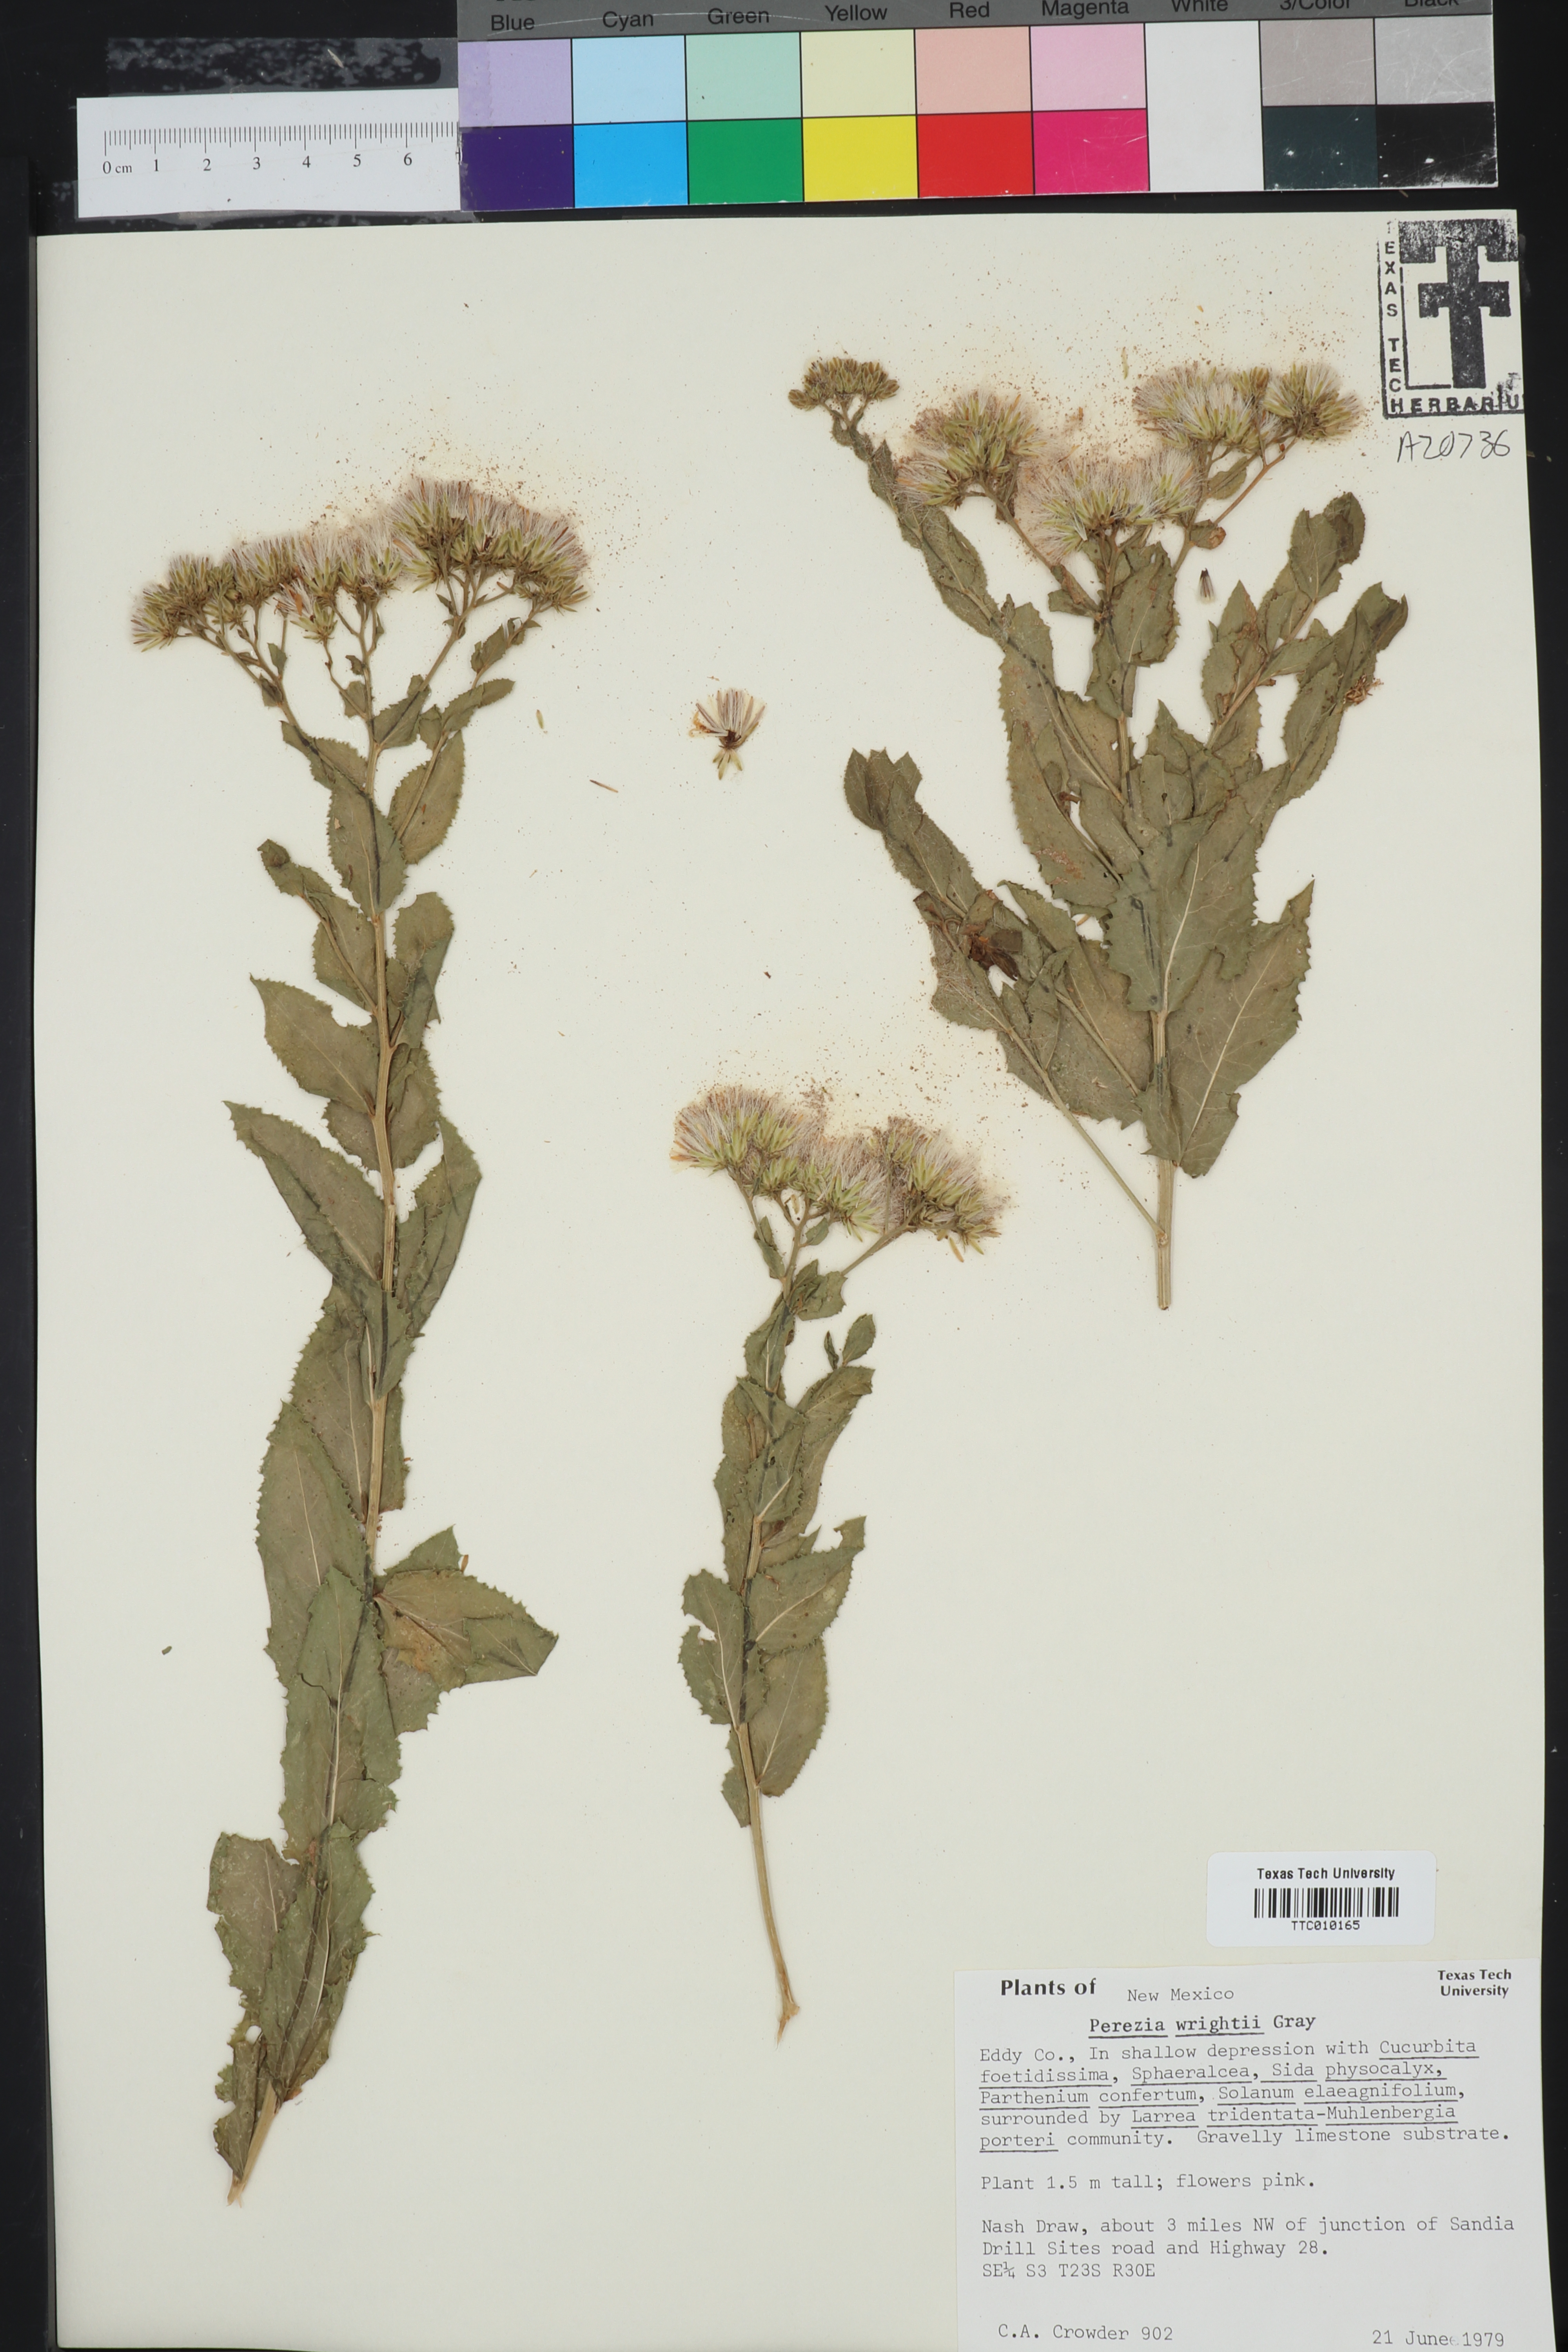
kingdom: Plantae
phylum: Tracheophyta
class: Magnoliopsida
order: Asterales
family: Asteraceae
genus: Acourtia
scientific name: Acourtia wrightii
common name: Brownfoot
